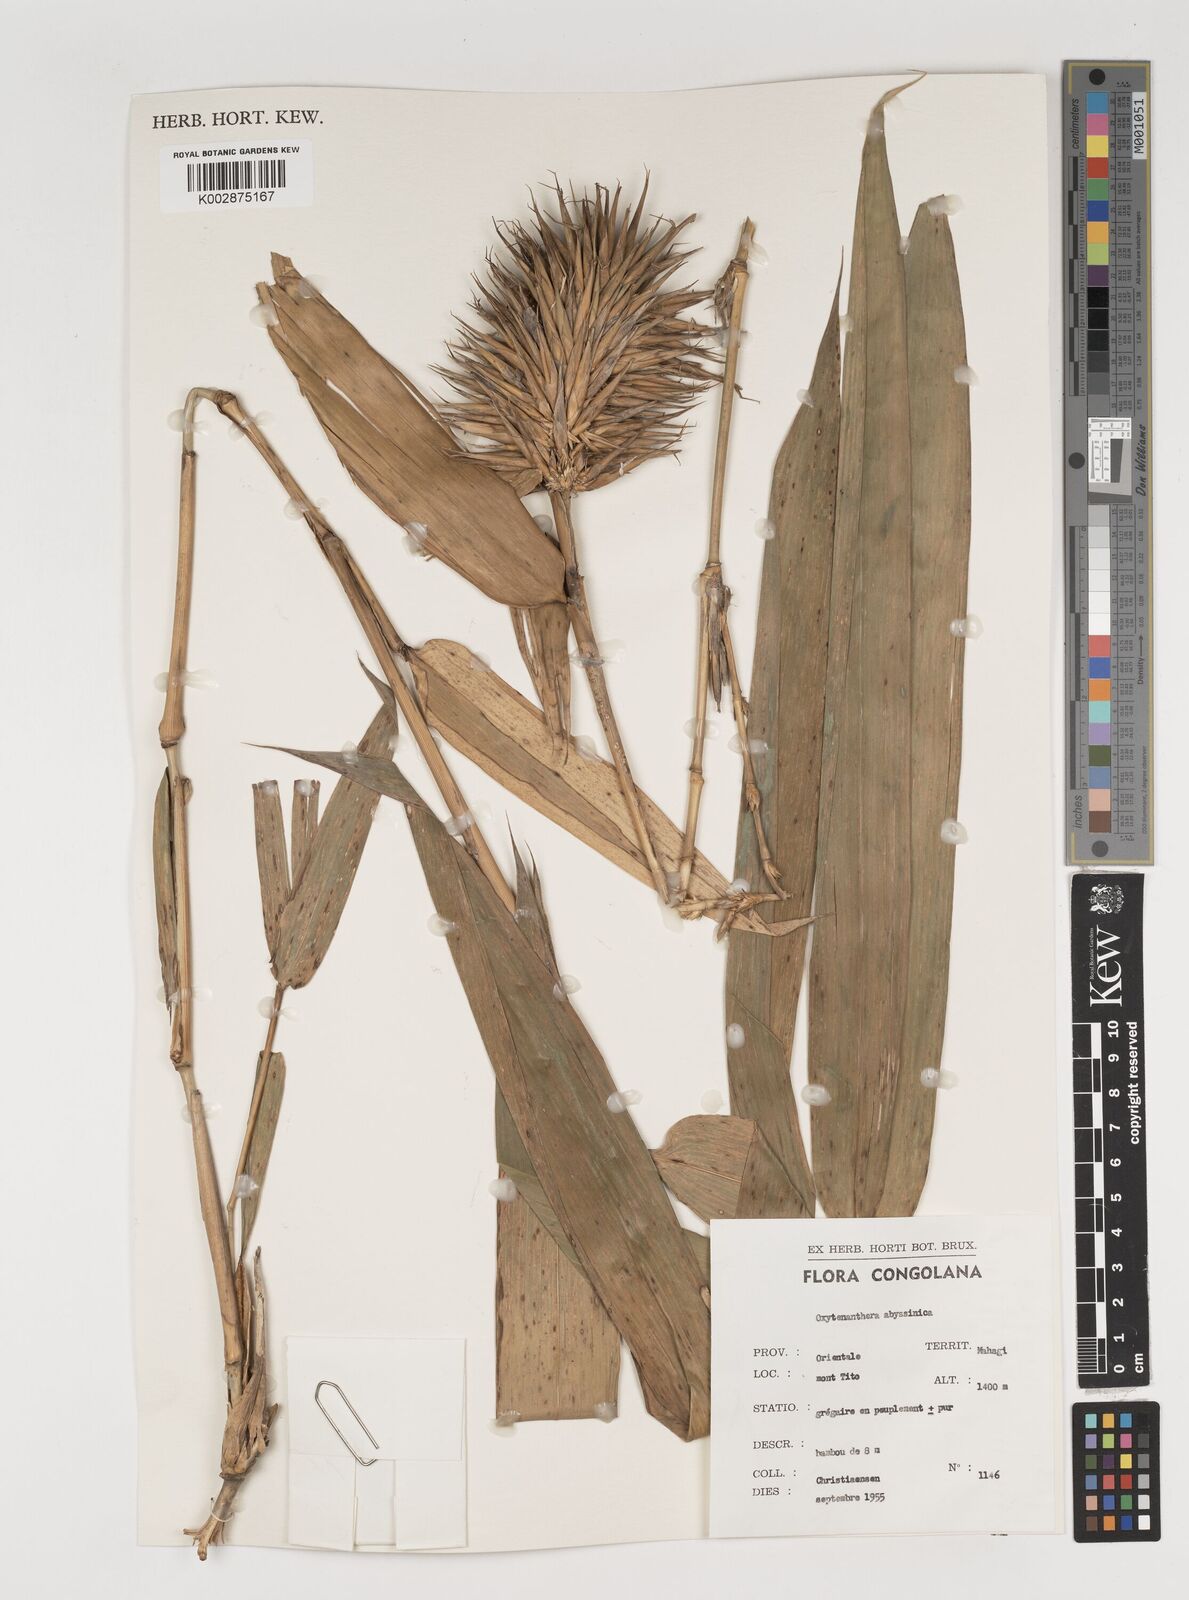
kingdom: Plantae
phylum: Tracheophyta
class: Liliopsida
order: Poales
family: Poaceae
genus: Oxytenanthera
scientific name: Oxytenanthera abyssinica
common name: Wine bamboo
